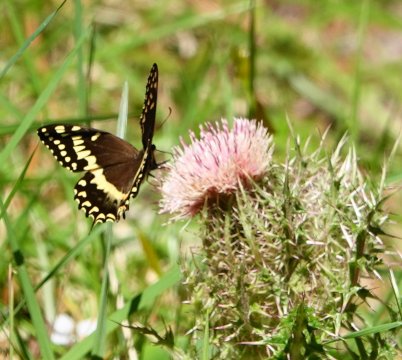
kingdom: Animalia
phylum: Arthropoda
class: Insecta
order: Lepidoptera
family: Papilionidae
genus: Pterourus
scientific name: Pterourus palamedes
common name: Palamedes Swallowtail
